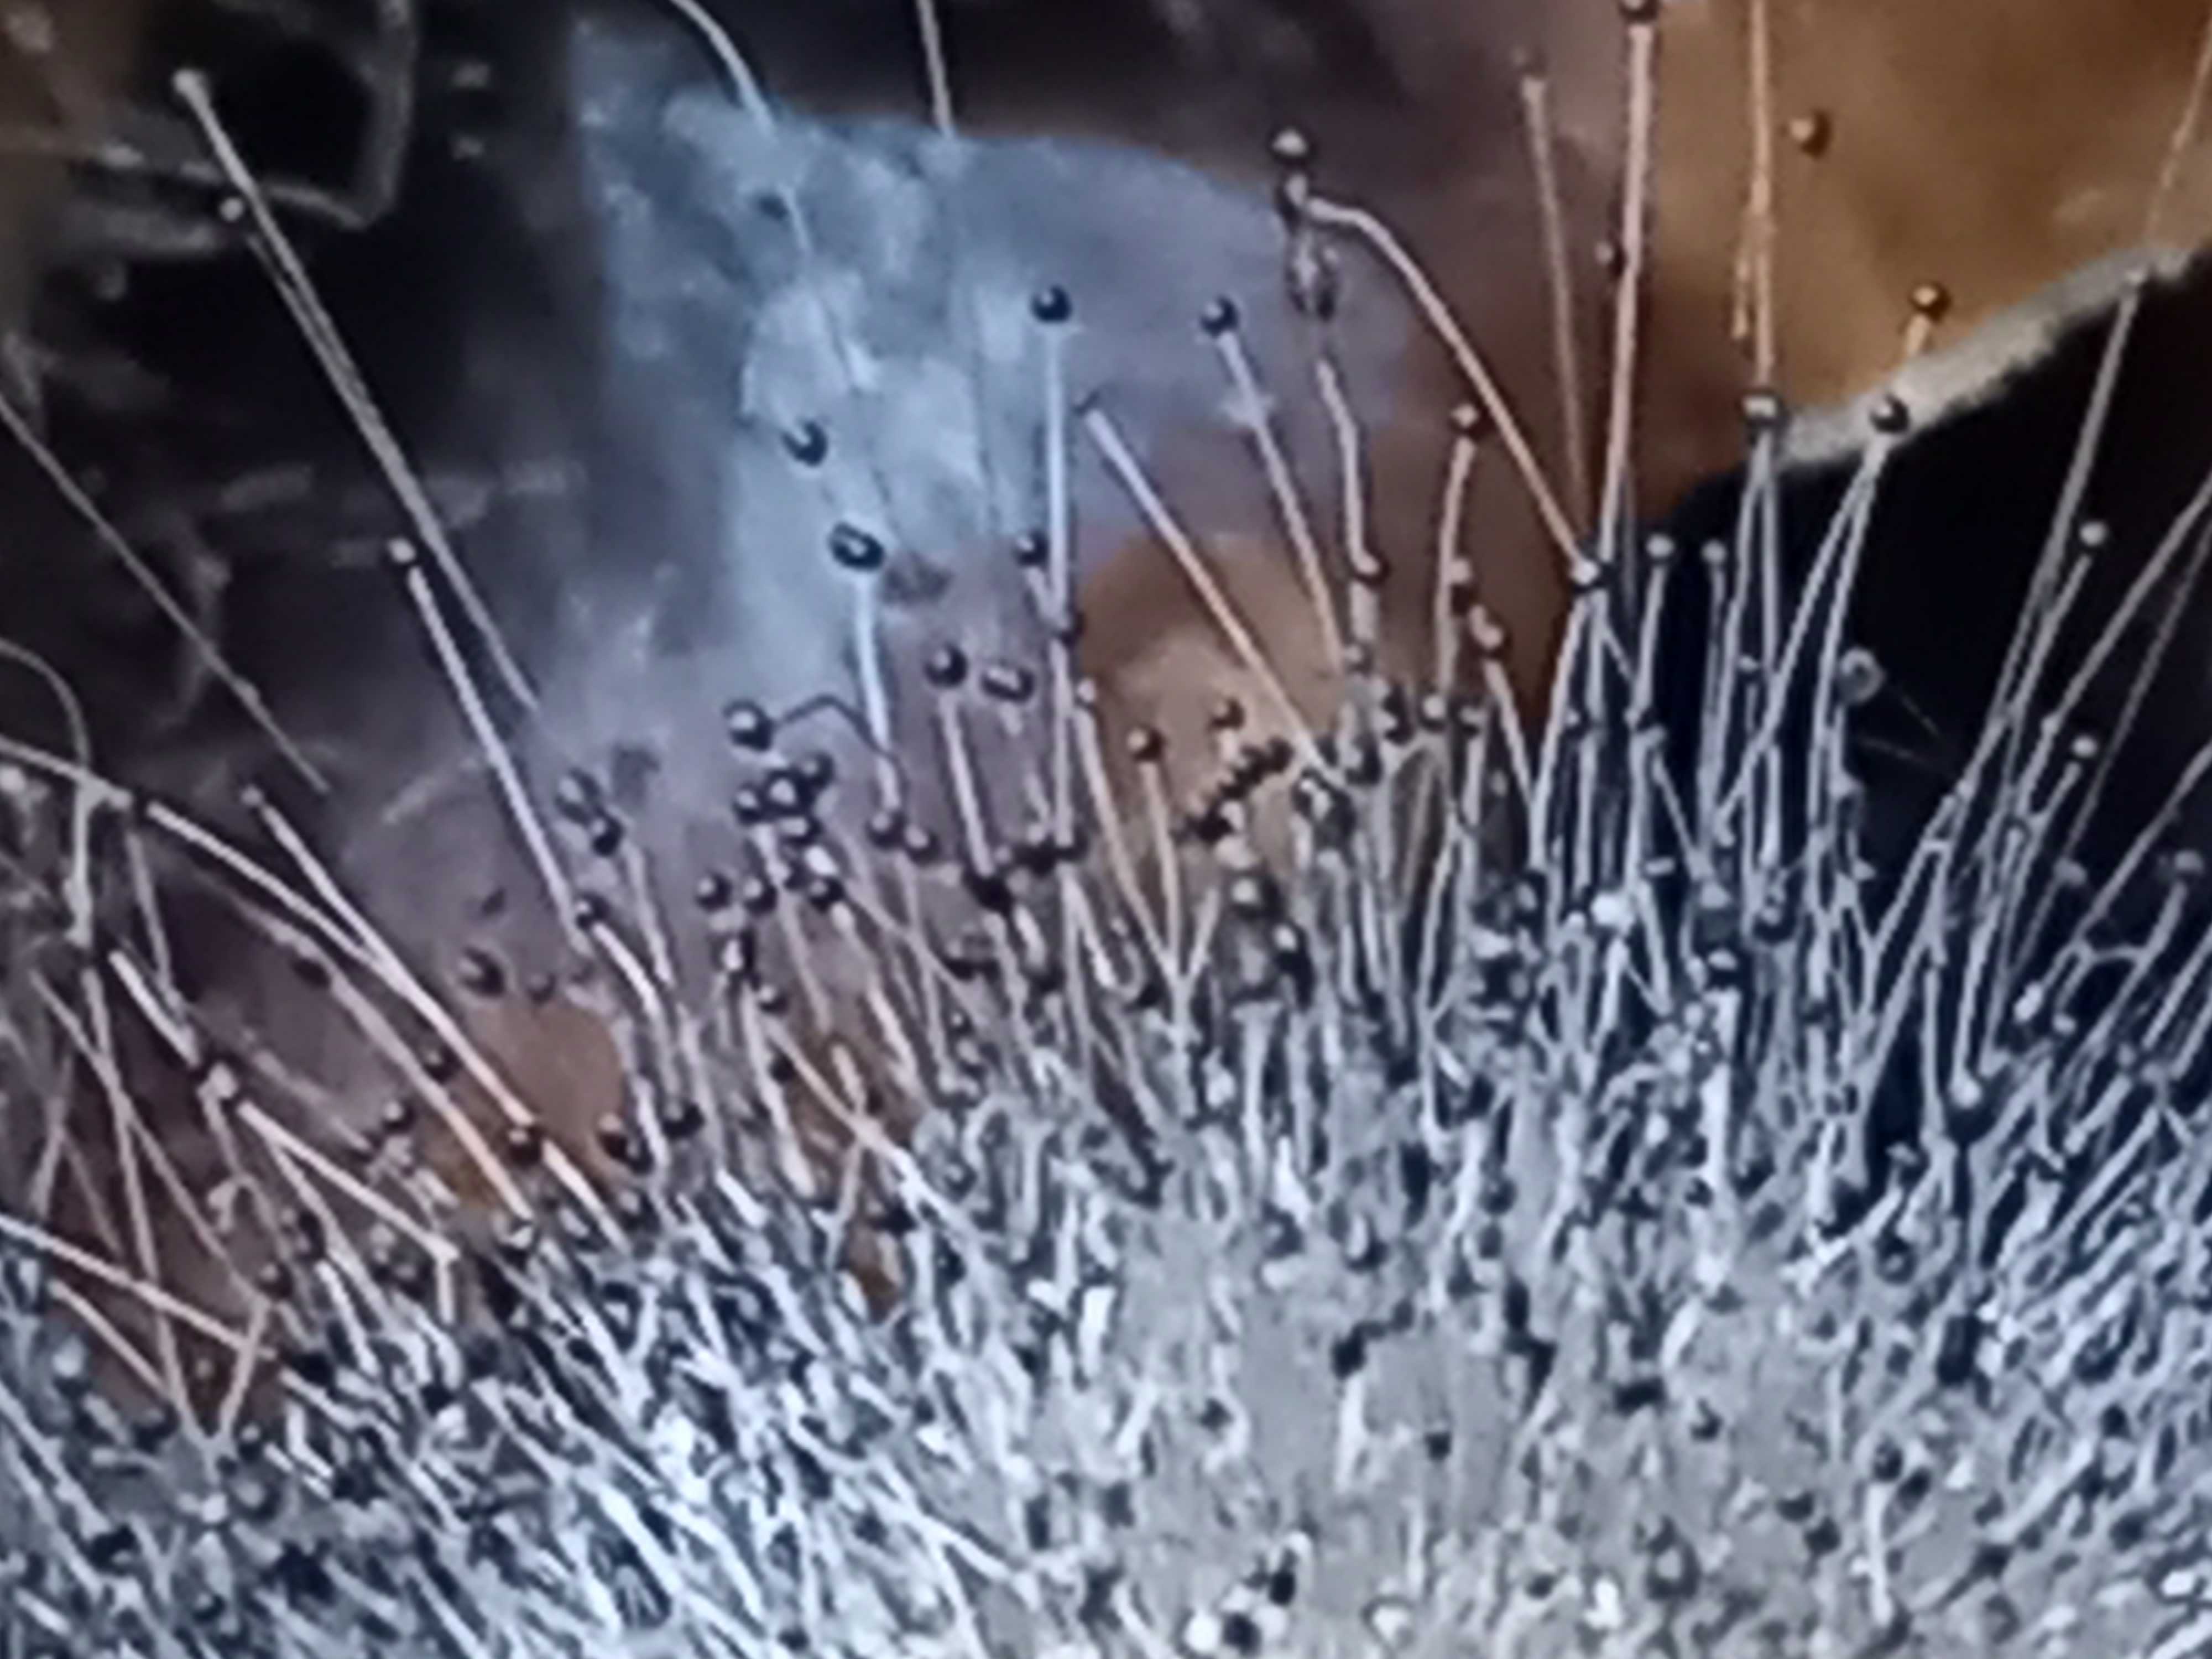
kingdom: Fungi
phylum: Mucoromycota
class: Mucoromycetes
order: Mucorales
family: Phycomycetaceae
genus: Spinellus
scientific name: Spinellus fusiger
